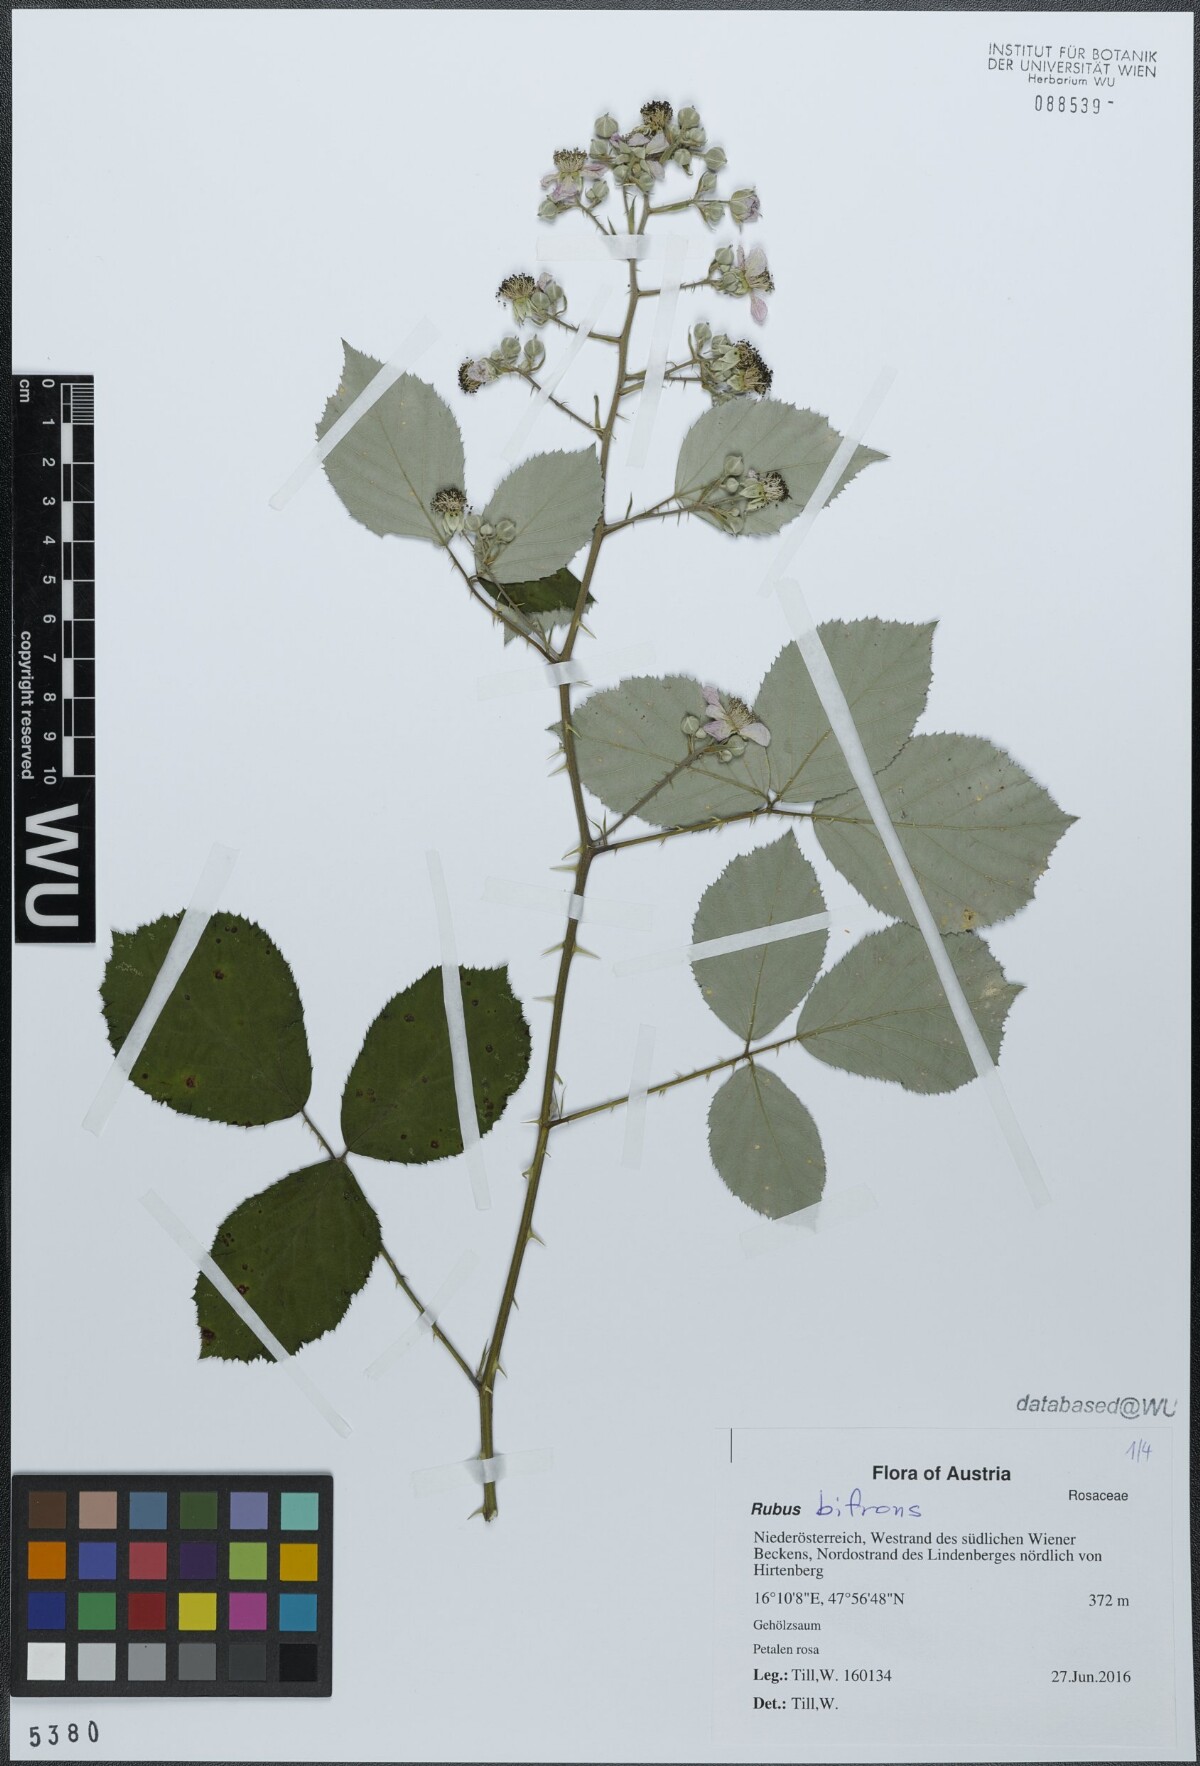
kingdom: Plantae
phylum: Tracheophyta
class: Magnoliopsida
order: Rosales
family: Rosaceae
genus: Rubus
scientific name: Rubus bifrons
